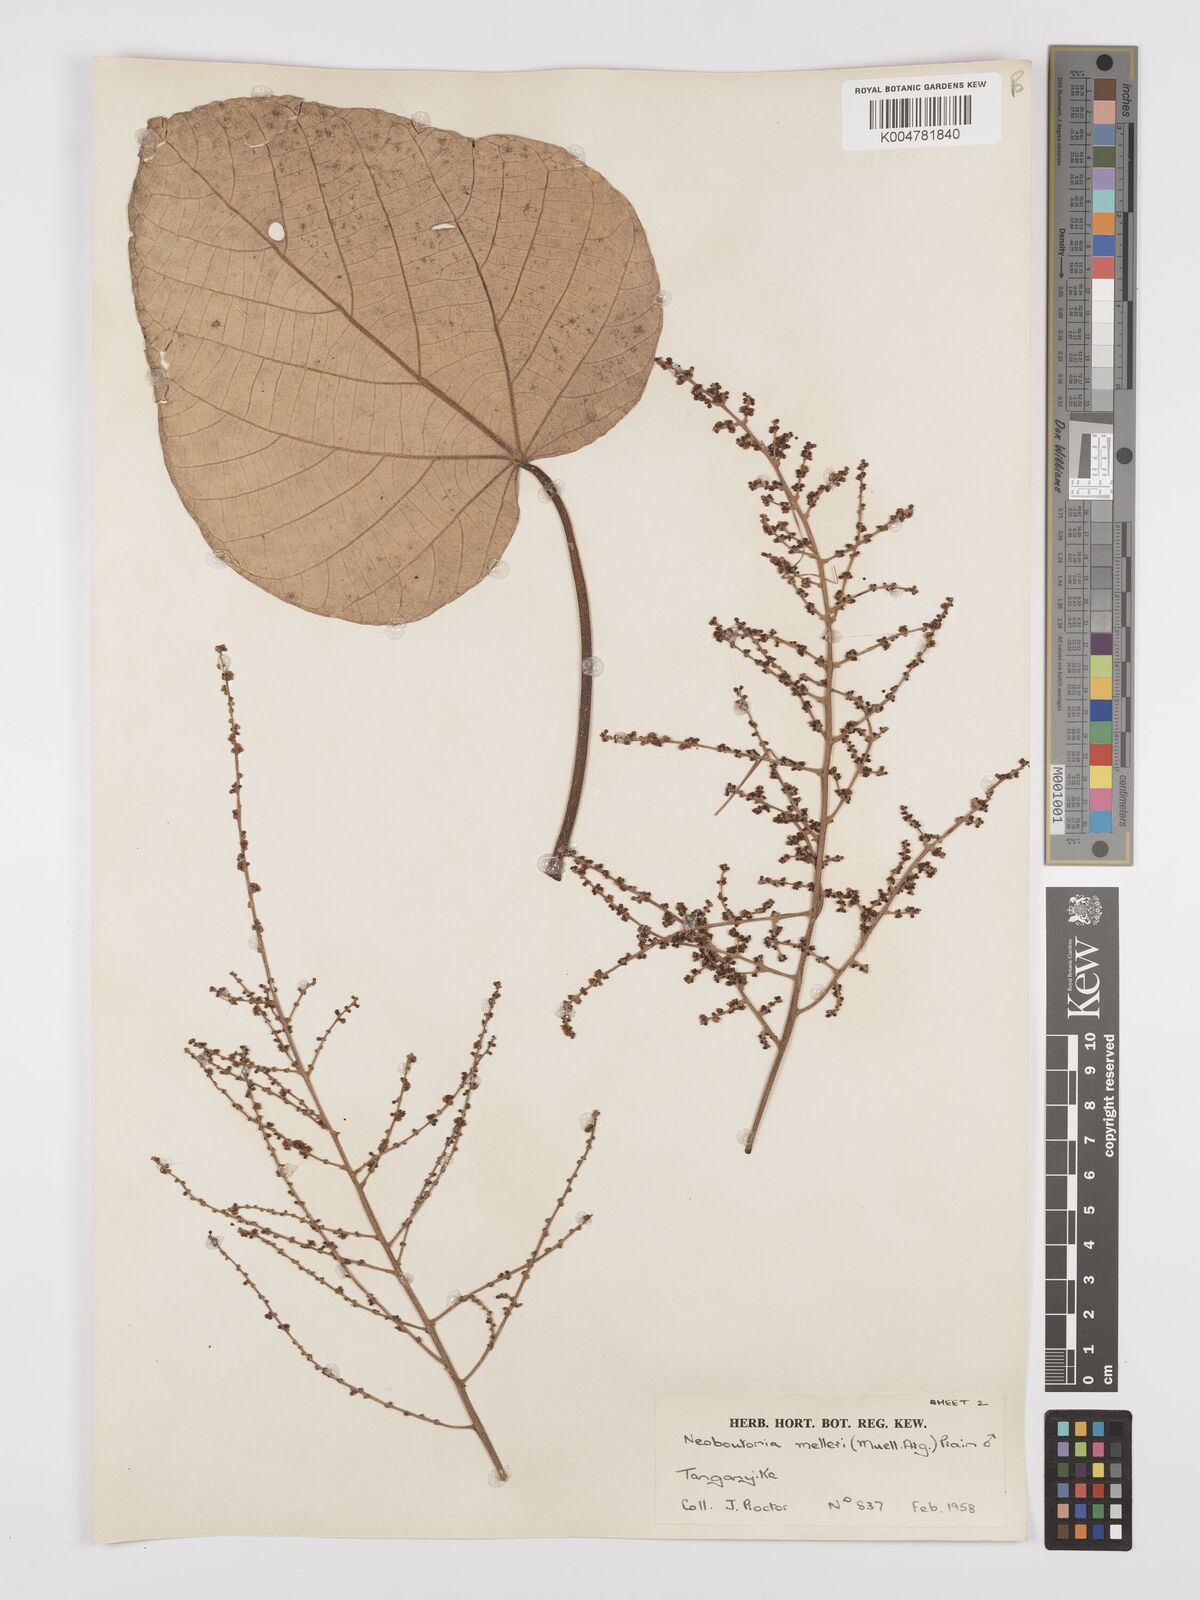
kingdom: Plantae
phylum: Tracheophyta
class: Magnoliopsida
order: Malpighiales
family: Euphorbiaceae
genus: Neoboutonia
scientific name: Neoboutonia melleri
